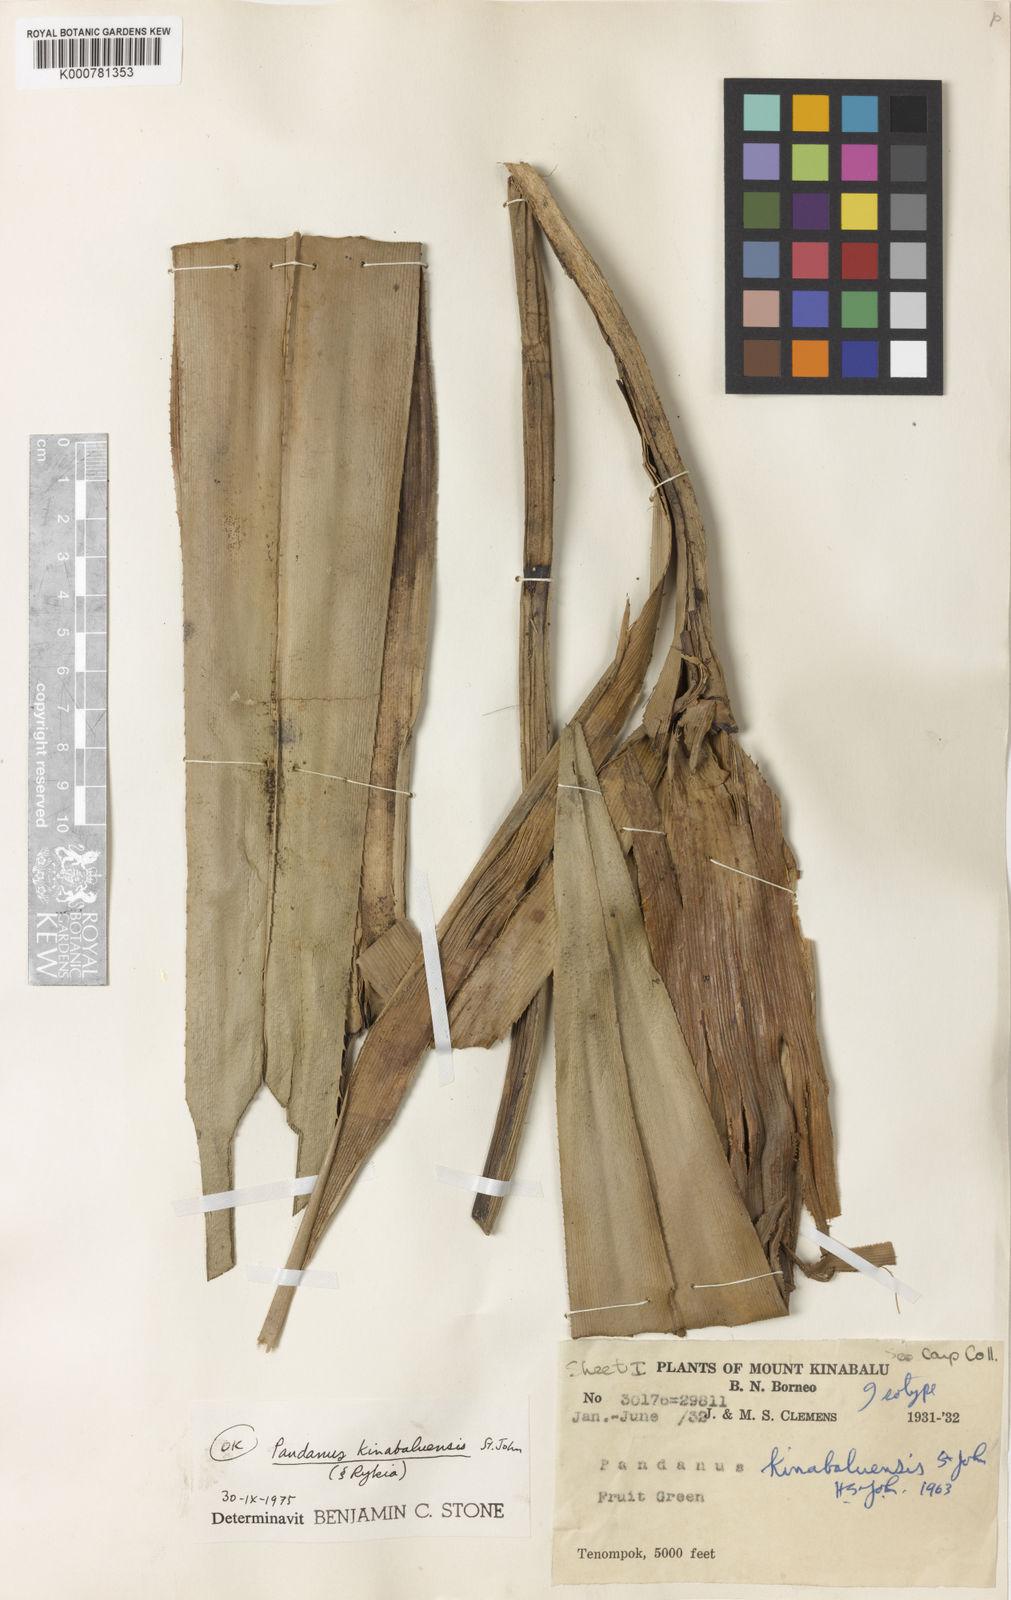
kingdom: Plantae
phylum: Tracheophyta
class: Liliopsida
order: Pandanales
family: Pandanaceae
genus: Pandanus
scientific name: Pandanus kinabaluensis
